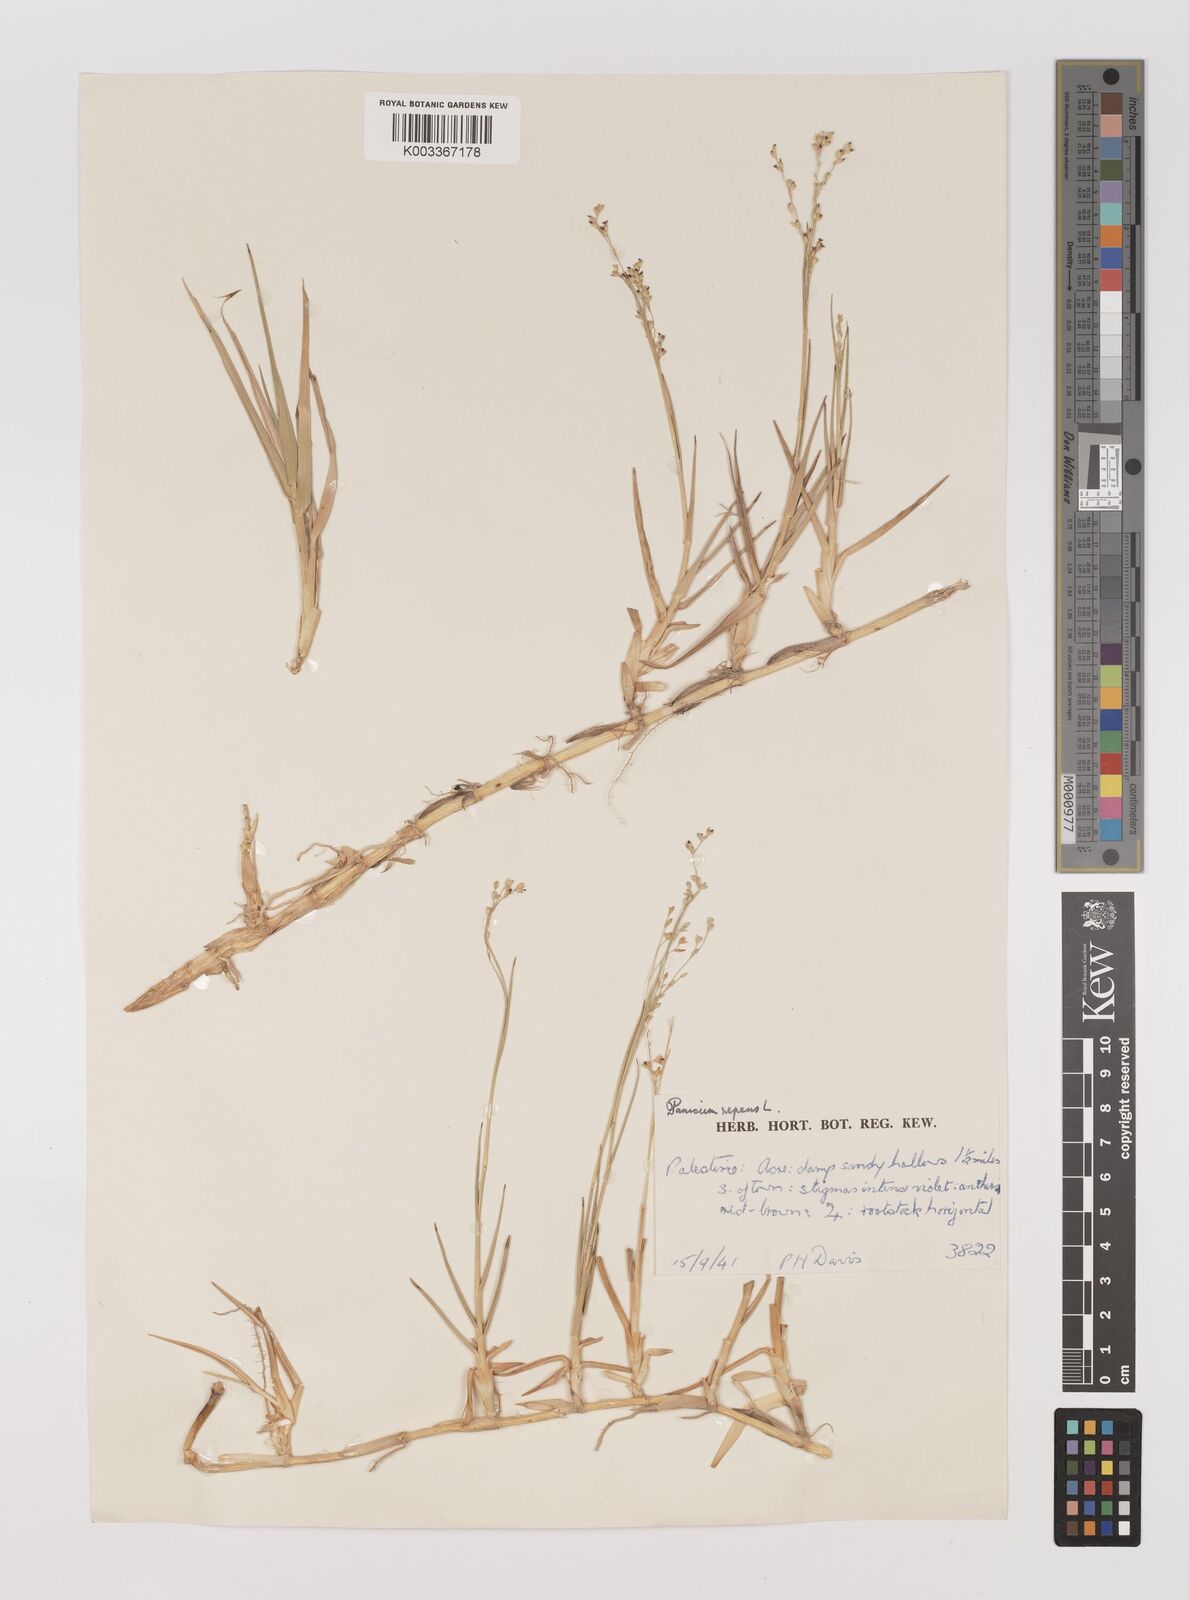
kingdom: Plantae
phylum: Tracheophyta
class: Liliopsida
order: Poales
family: Poaceae
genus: Panicum
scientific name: Panicum repens
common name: Torpedo grass
